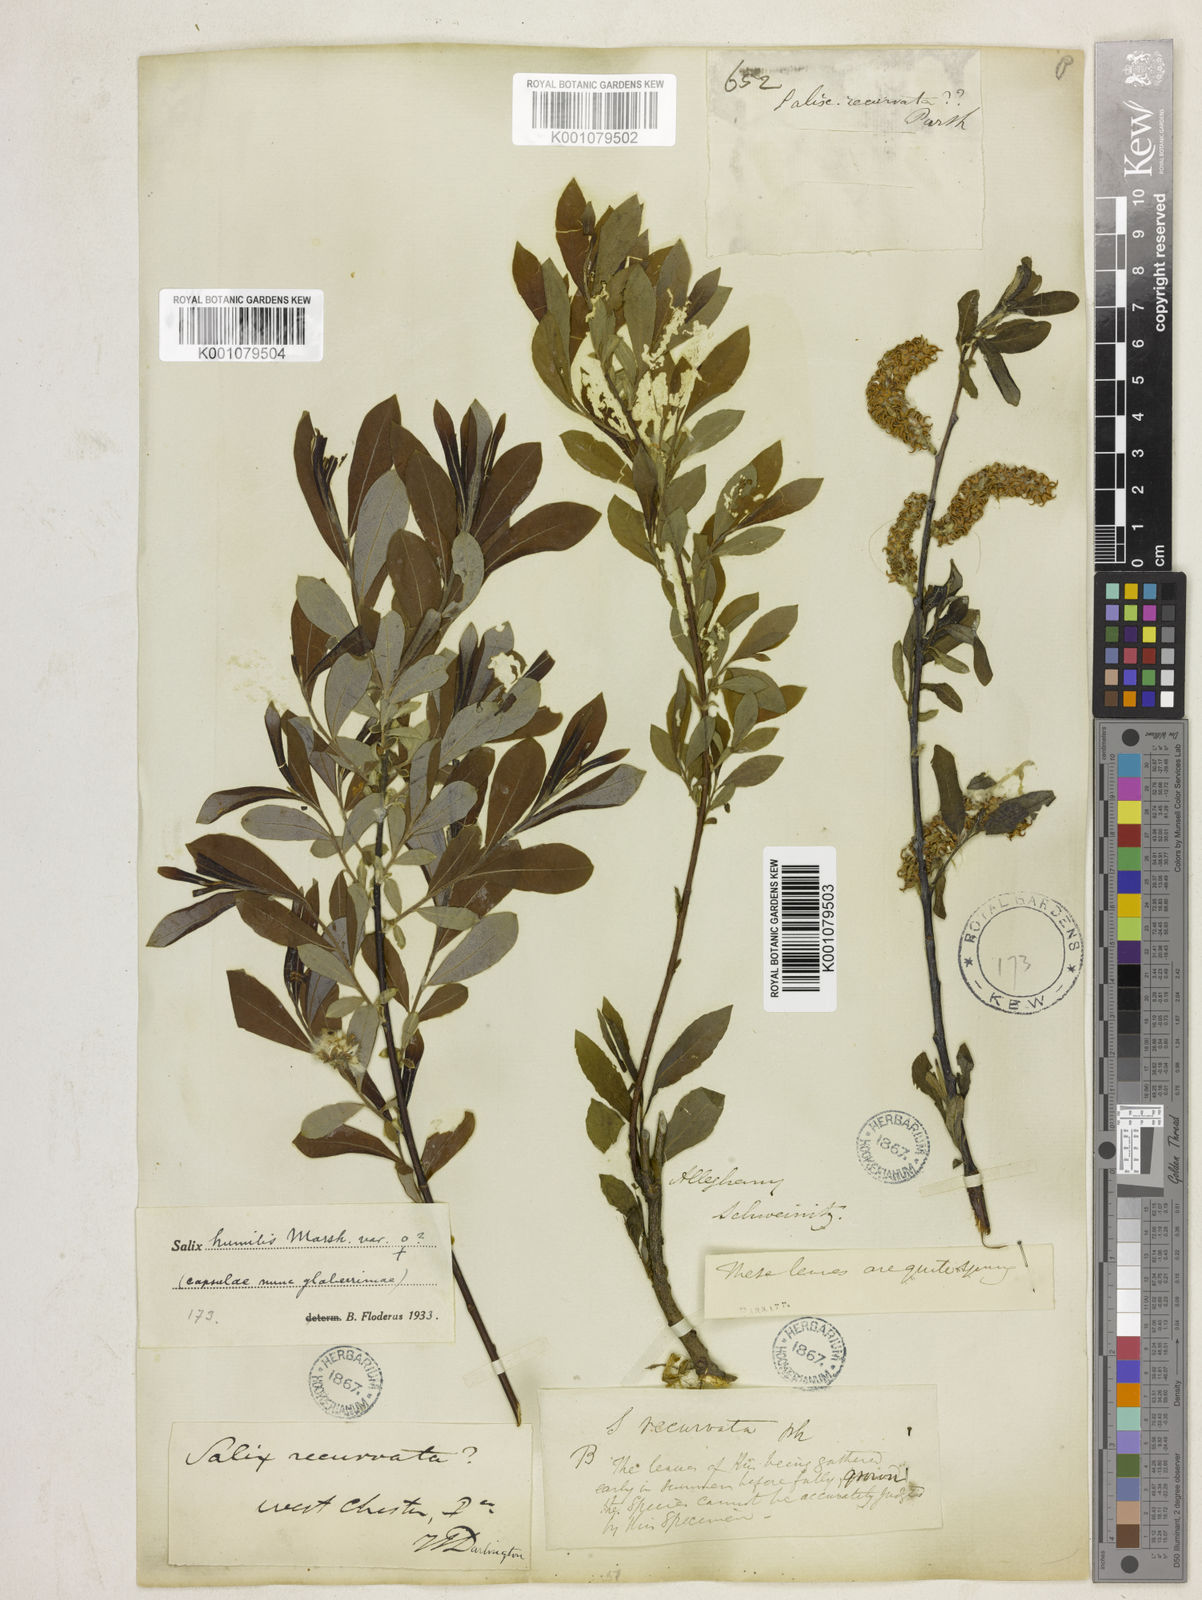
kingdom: Plantae
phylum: Tracheophyta
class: Magnoliopsida
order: Malpighiales
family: Salicaceae
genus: Salix
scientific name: Salix humilis
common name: Prairie willow
